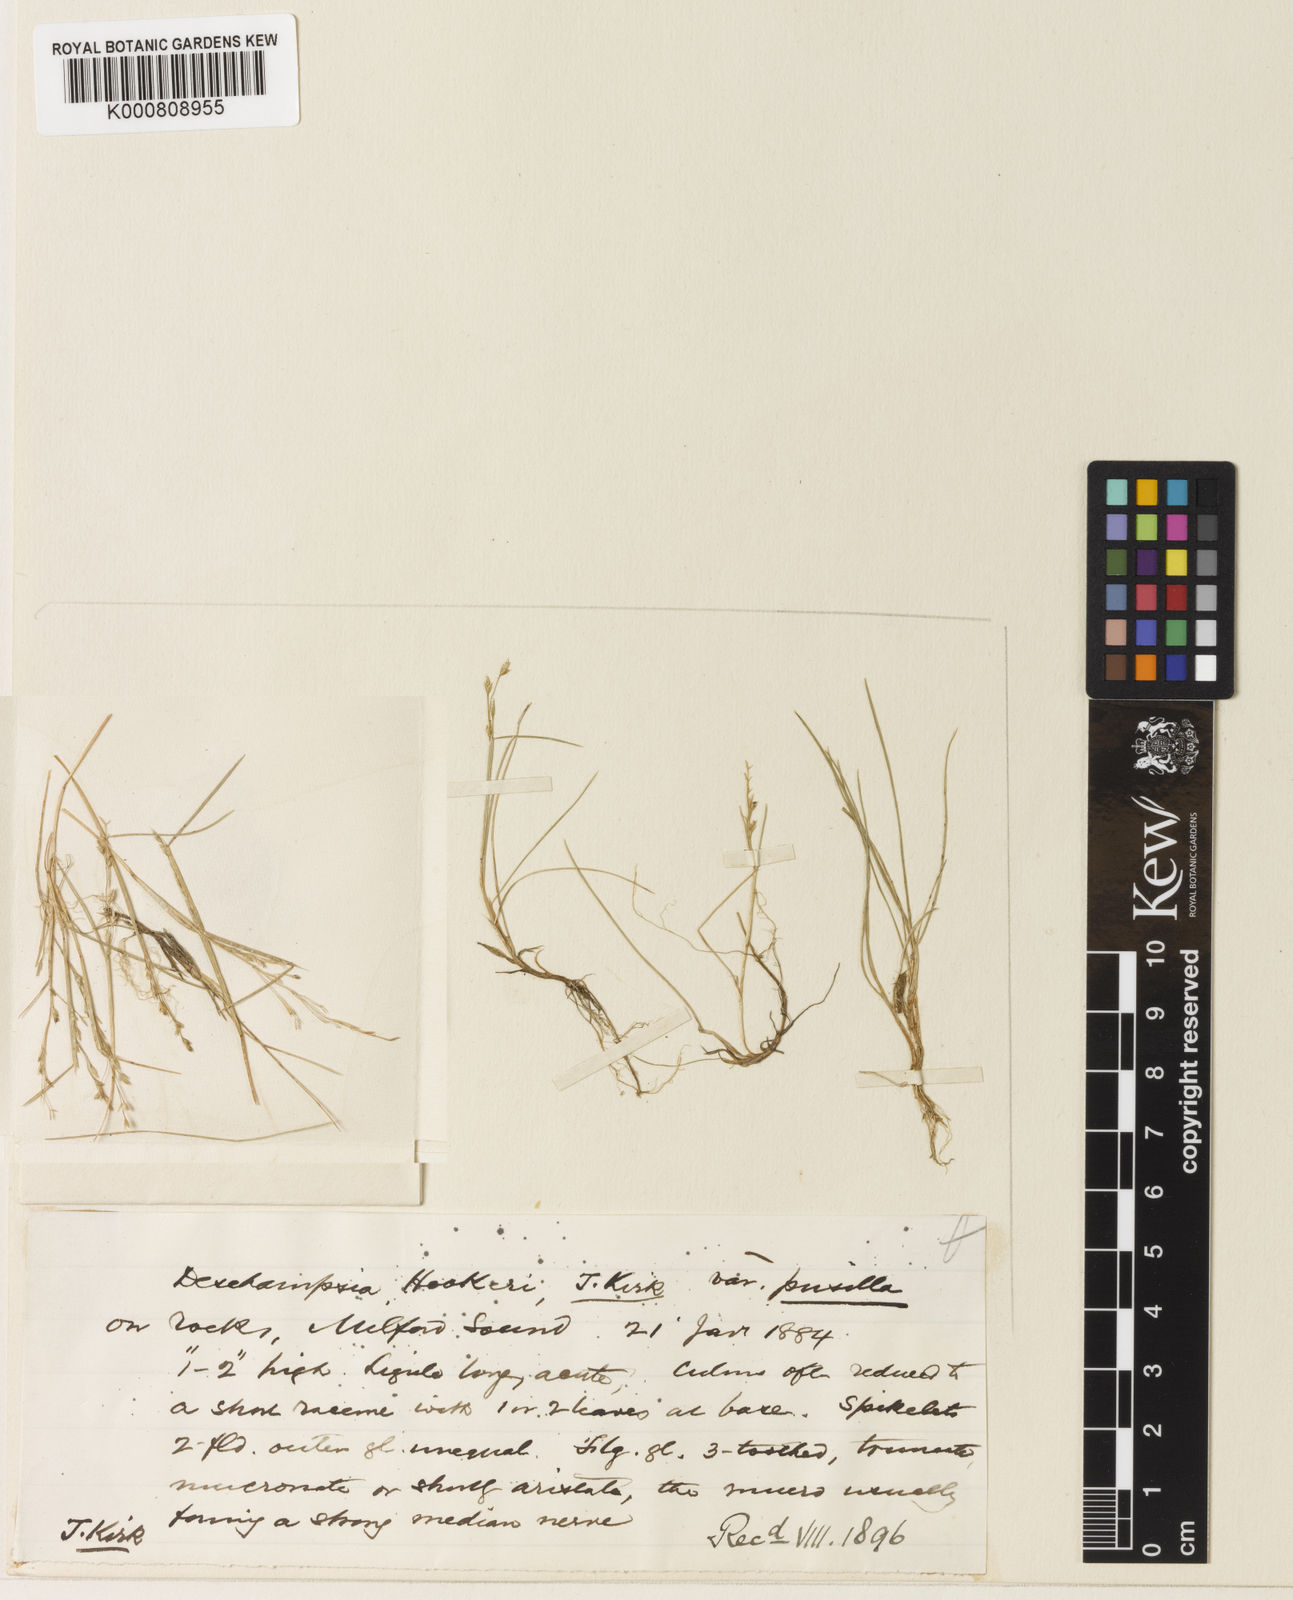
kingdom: Plantae
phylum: Tracheophyta
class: Liliopsida
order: Poales
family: Poaceae
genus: Deschampsia
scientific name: Deschampsia tenella
